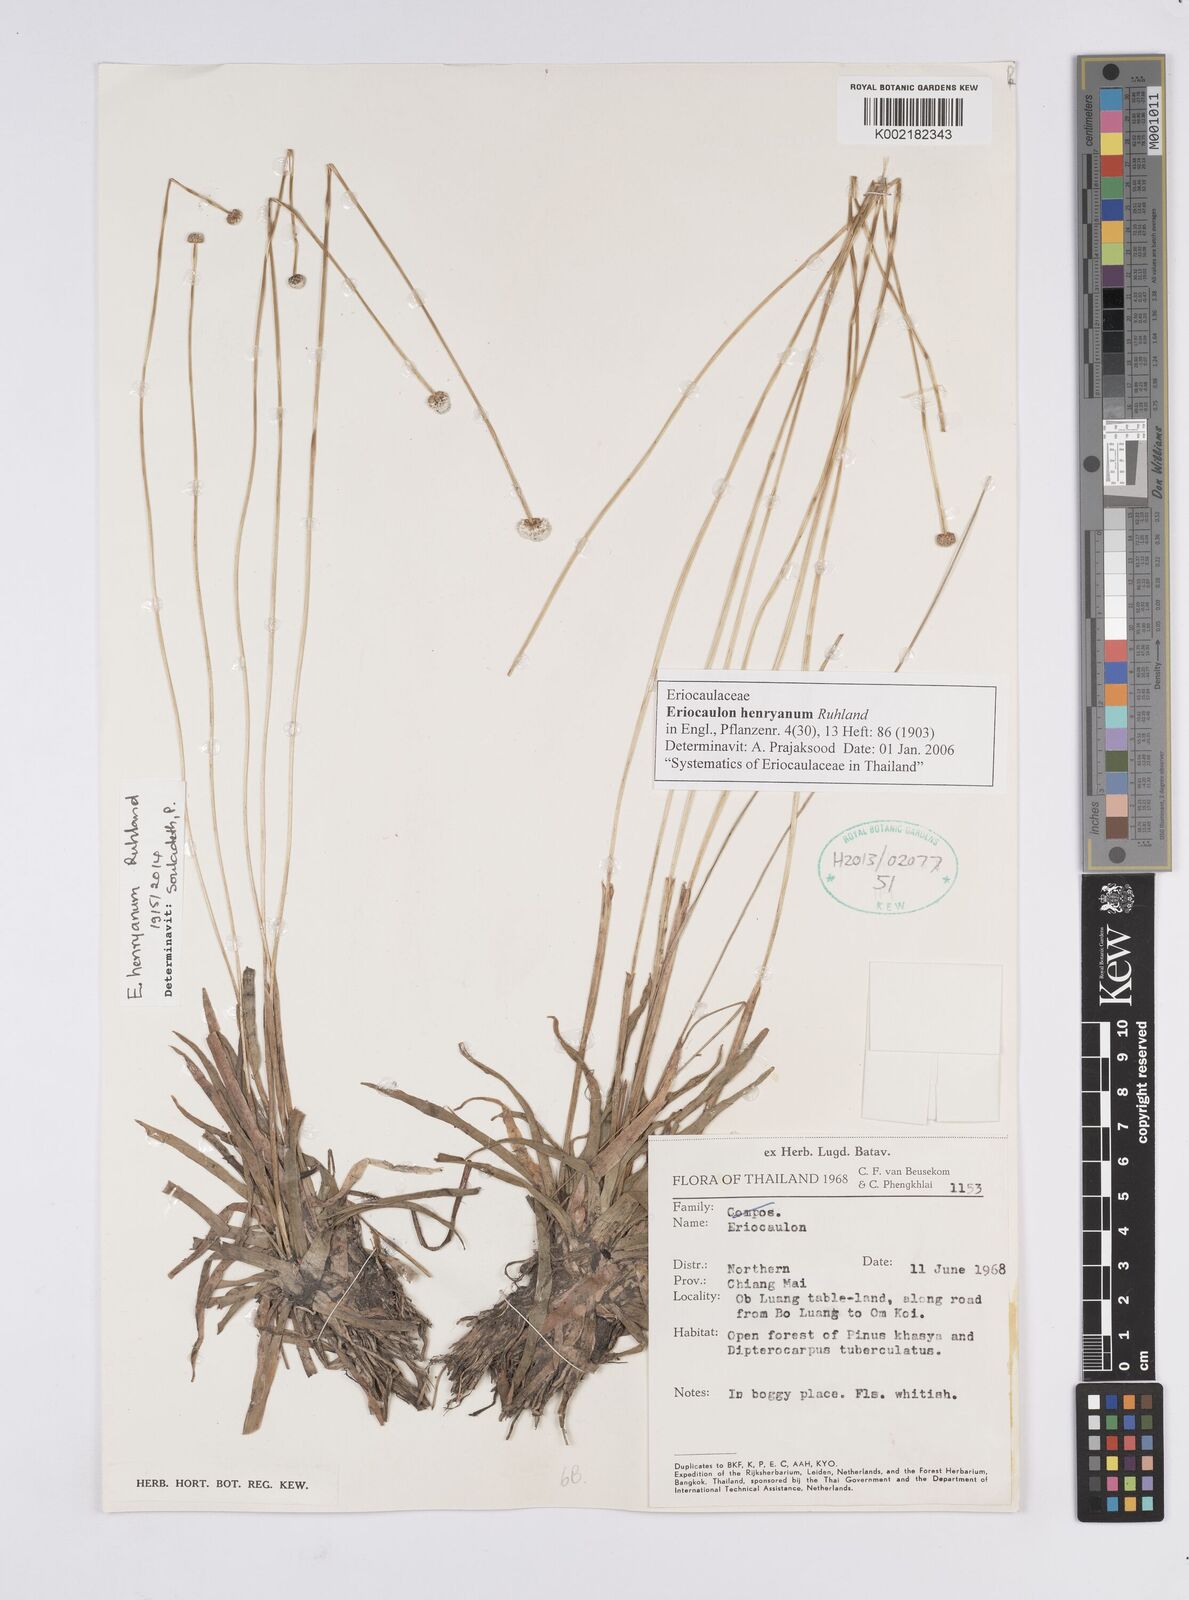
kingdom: Plantae
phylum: Tracheophyta
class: Liliopsida
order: Poales
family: Eriocaulaceae
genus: Eriocaulon
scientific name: Eriocaulon henryanum
